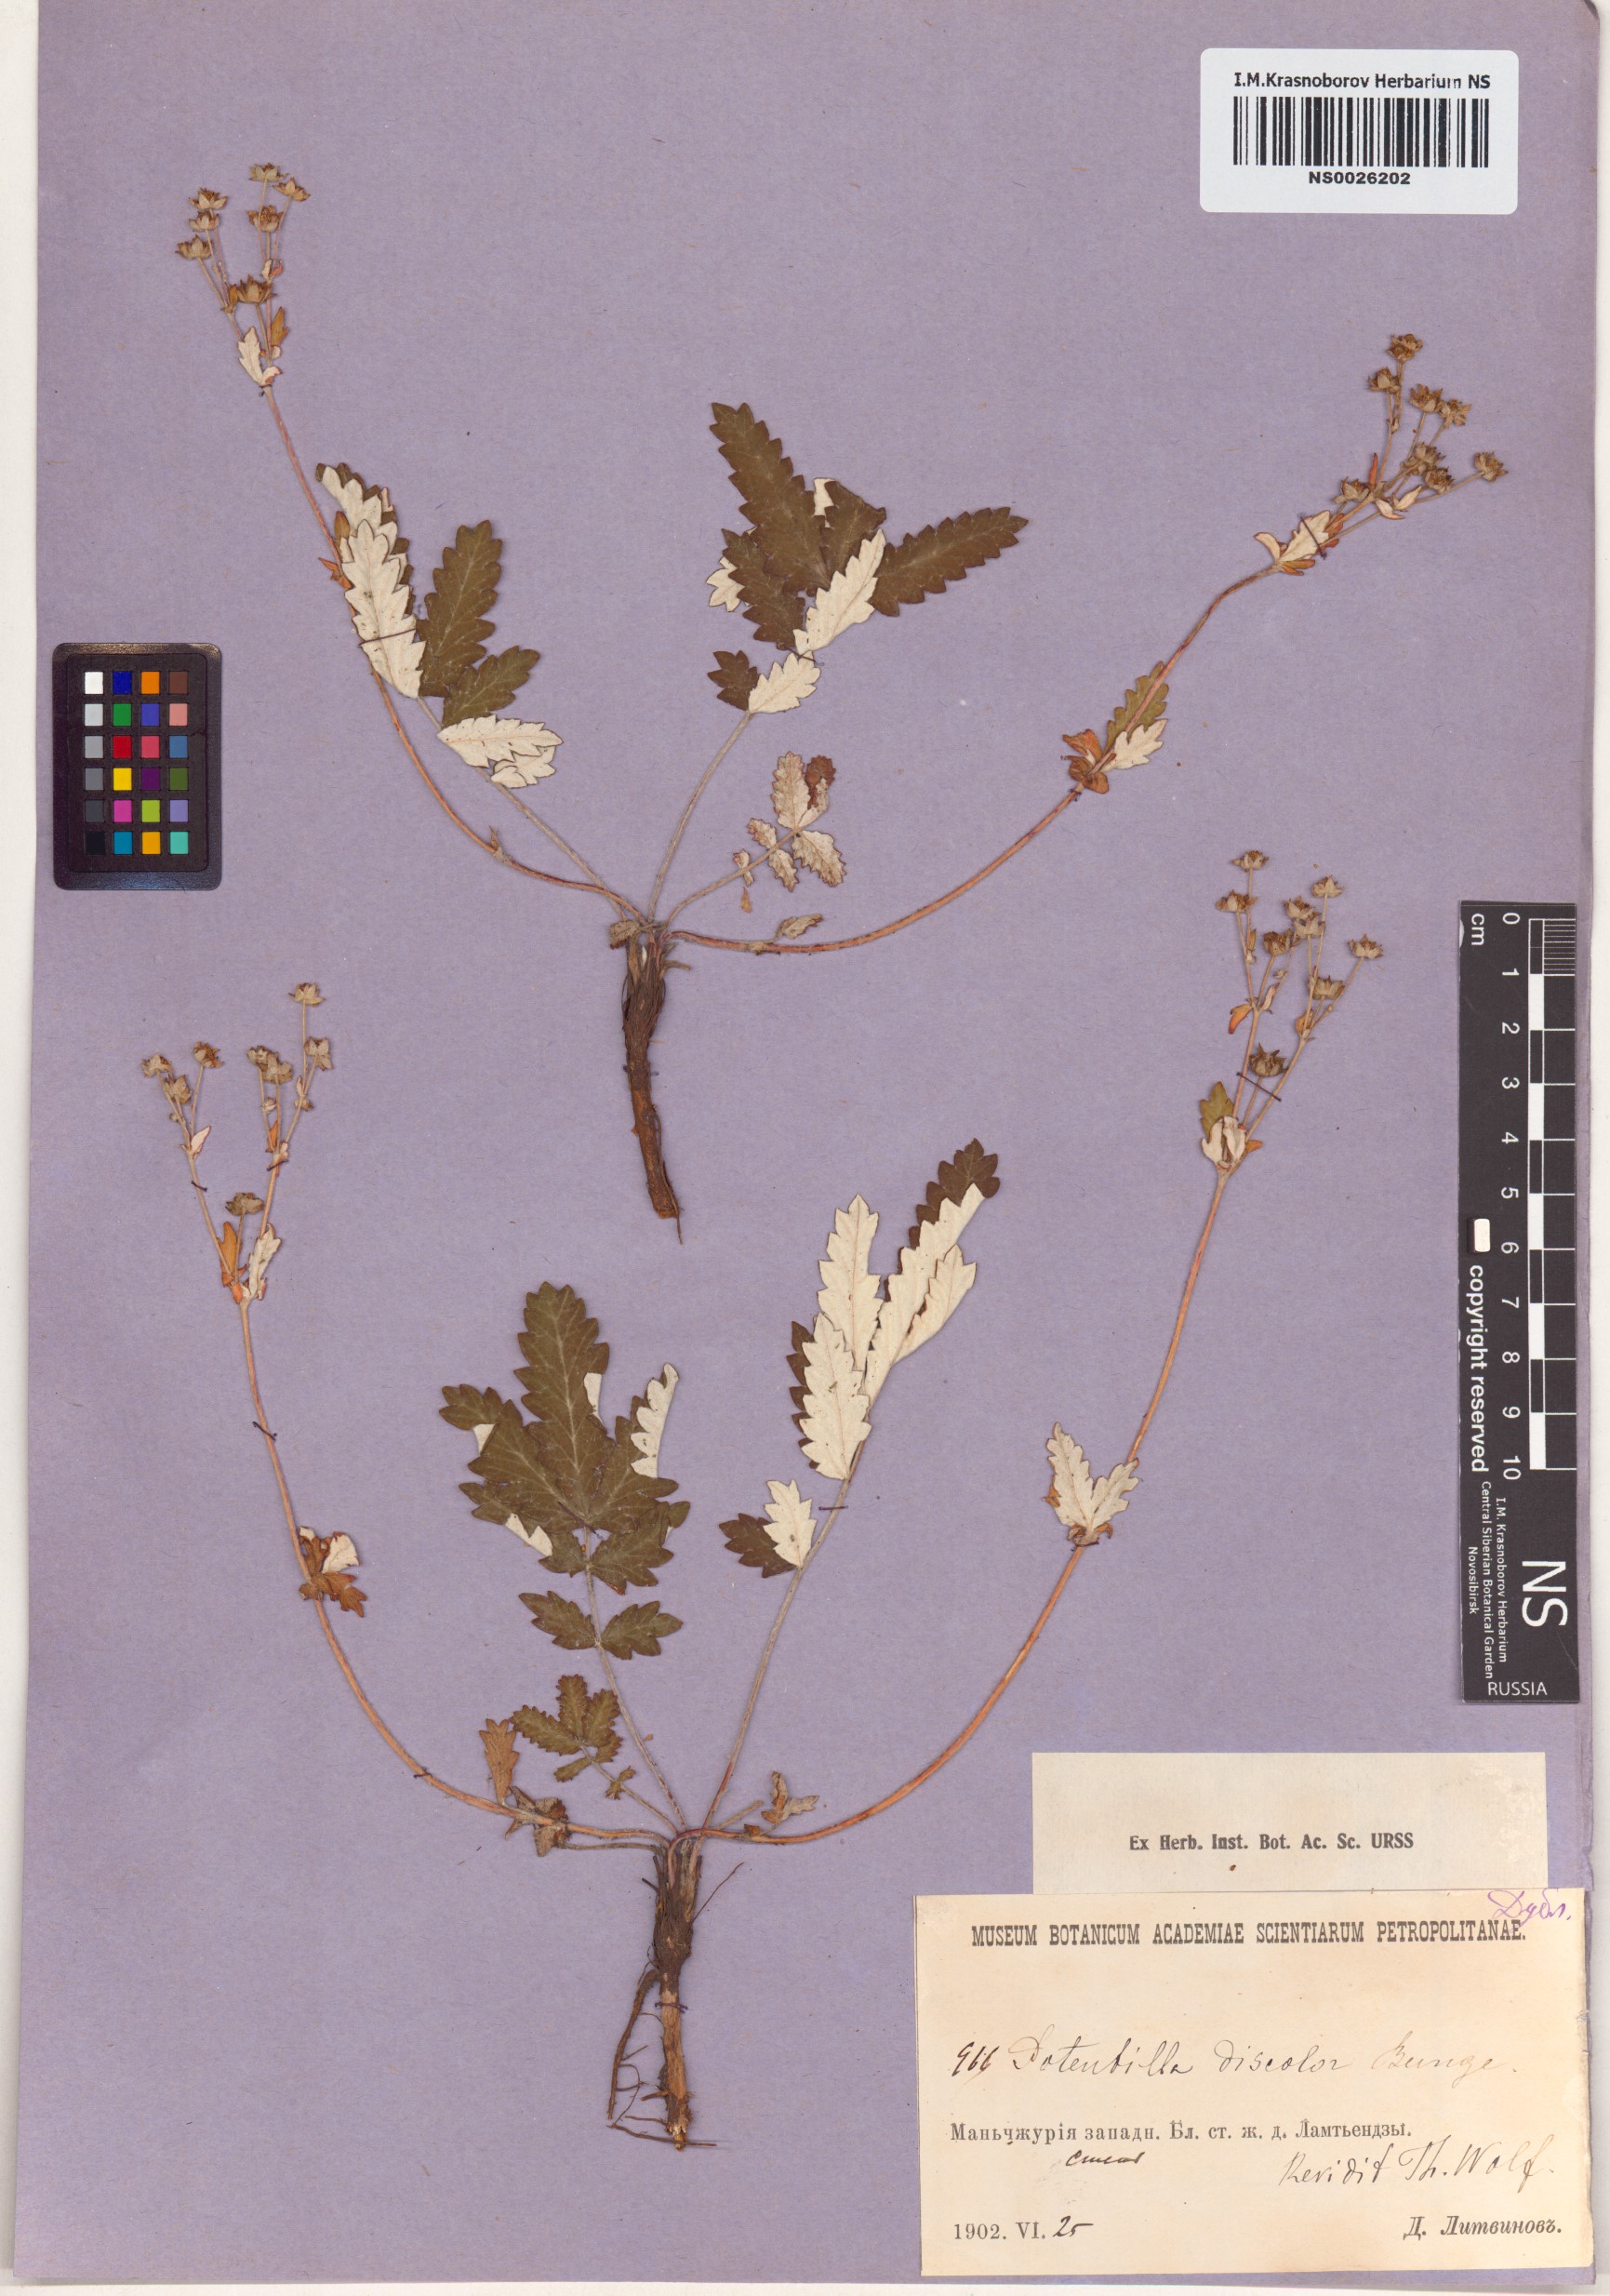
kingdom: Plantae
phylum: Tracheophyta
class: Magnoliopsida
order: Rosales
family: Rosaceae
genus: Potentilla
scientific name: Potentilla discolor
